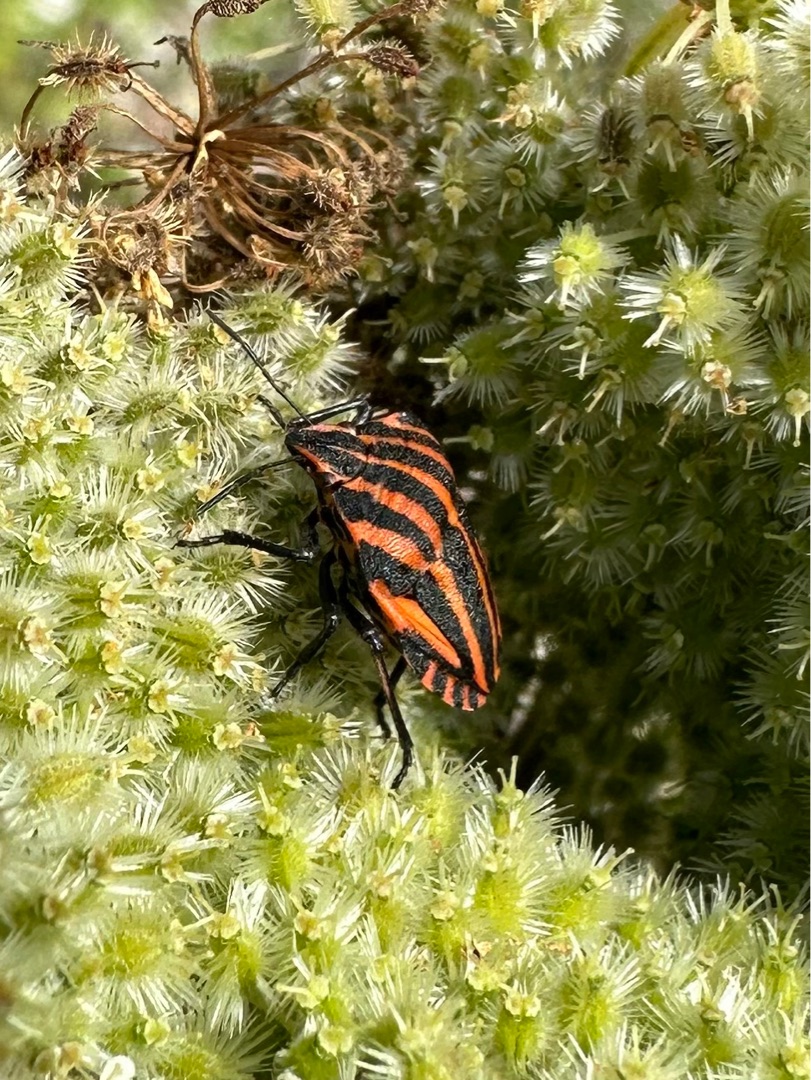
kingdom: Animalia
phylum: Arthropoda
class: Insecta
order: Hemiptera
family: Pentatomidae
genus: Graphosoma
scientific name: Graphosoma italicum
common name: Stribetæge
